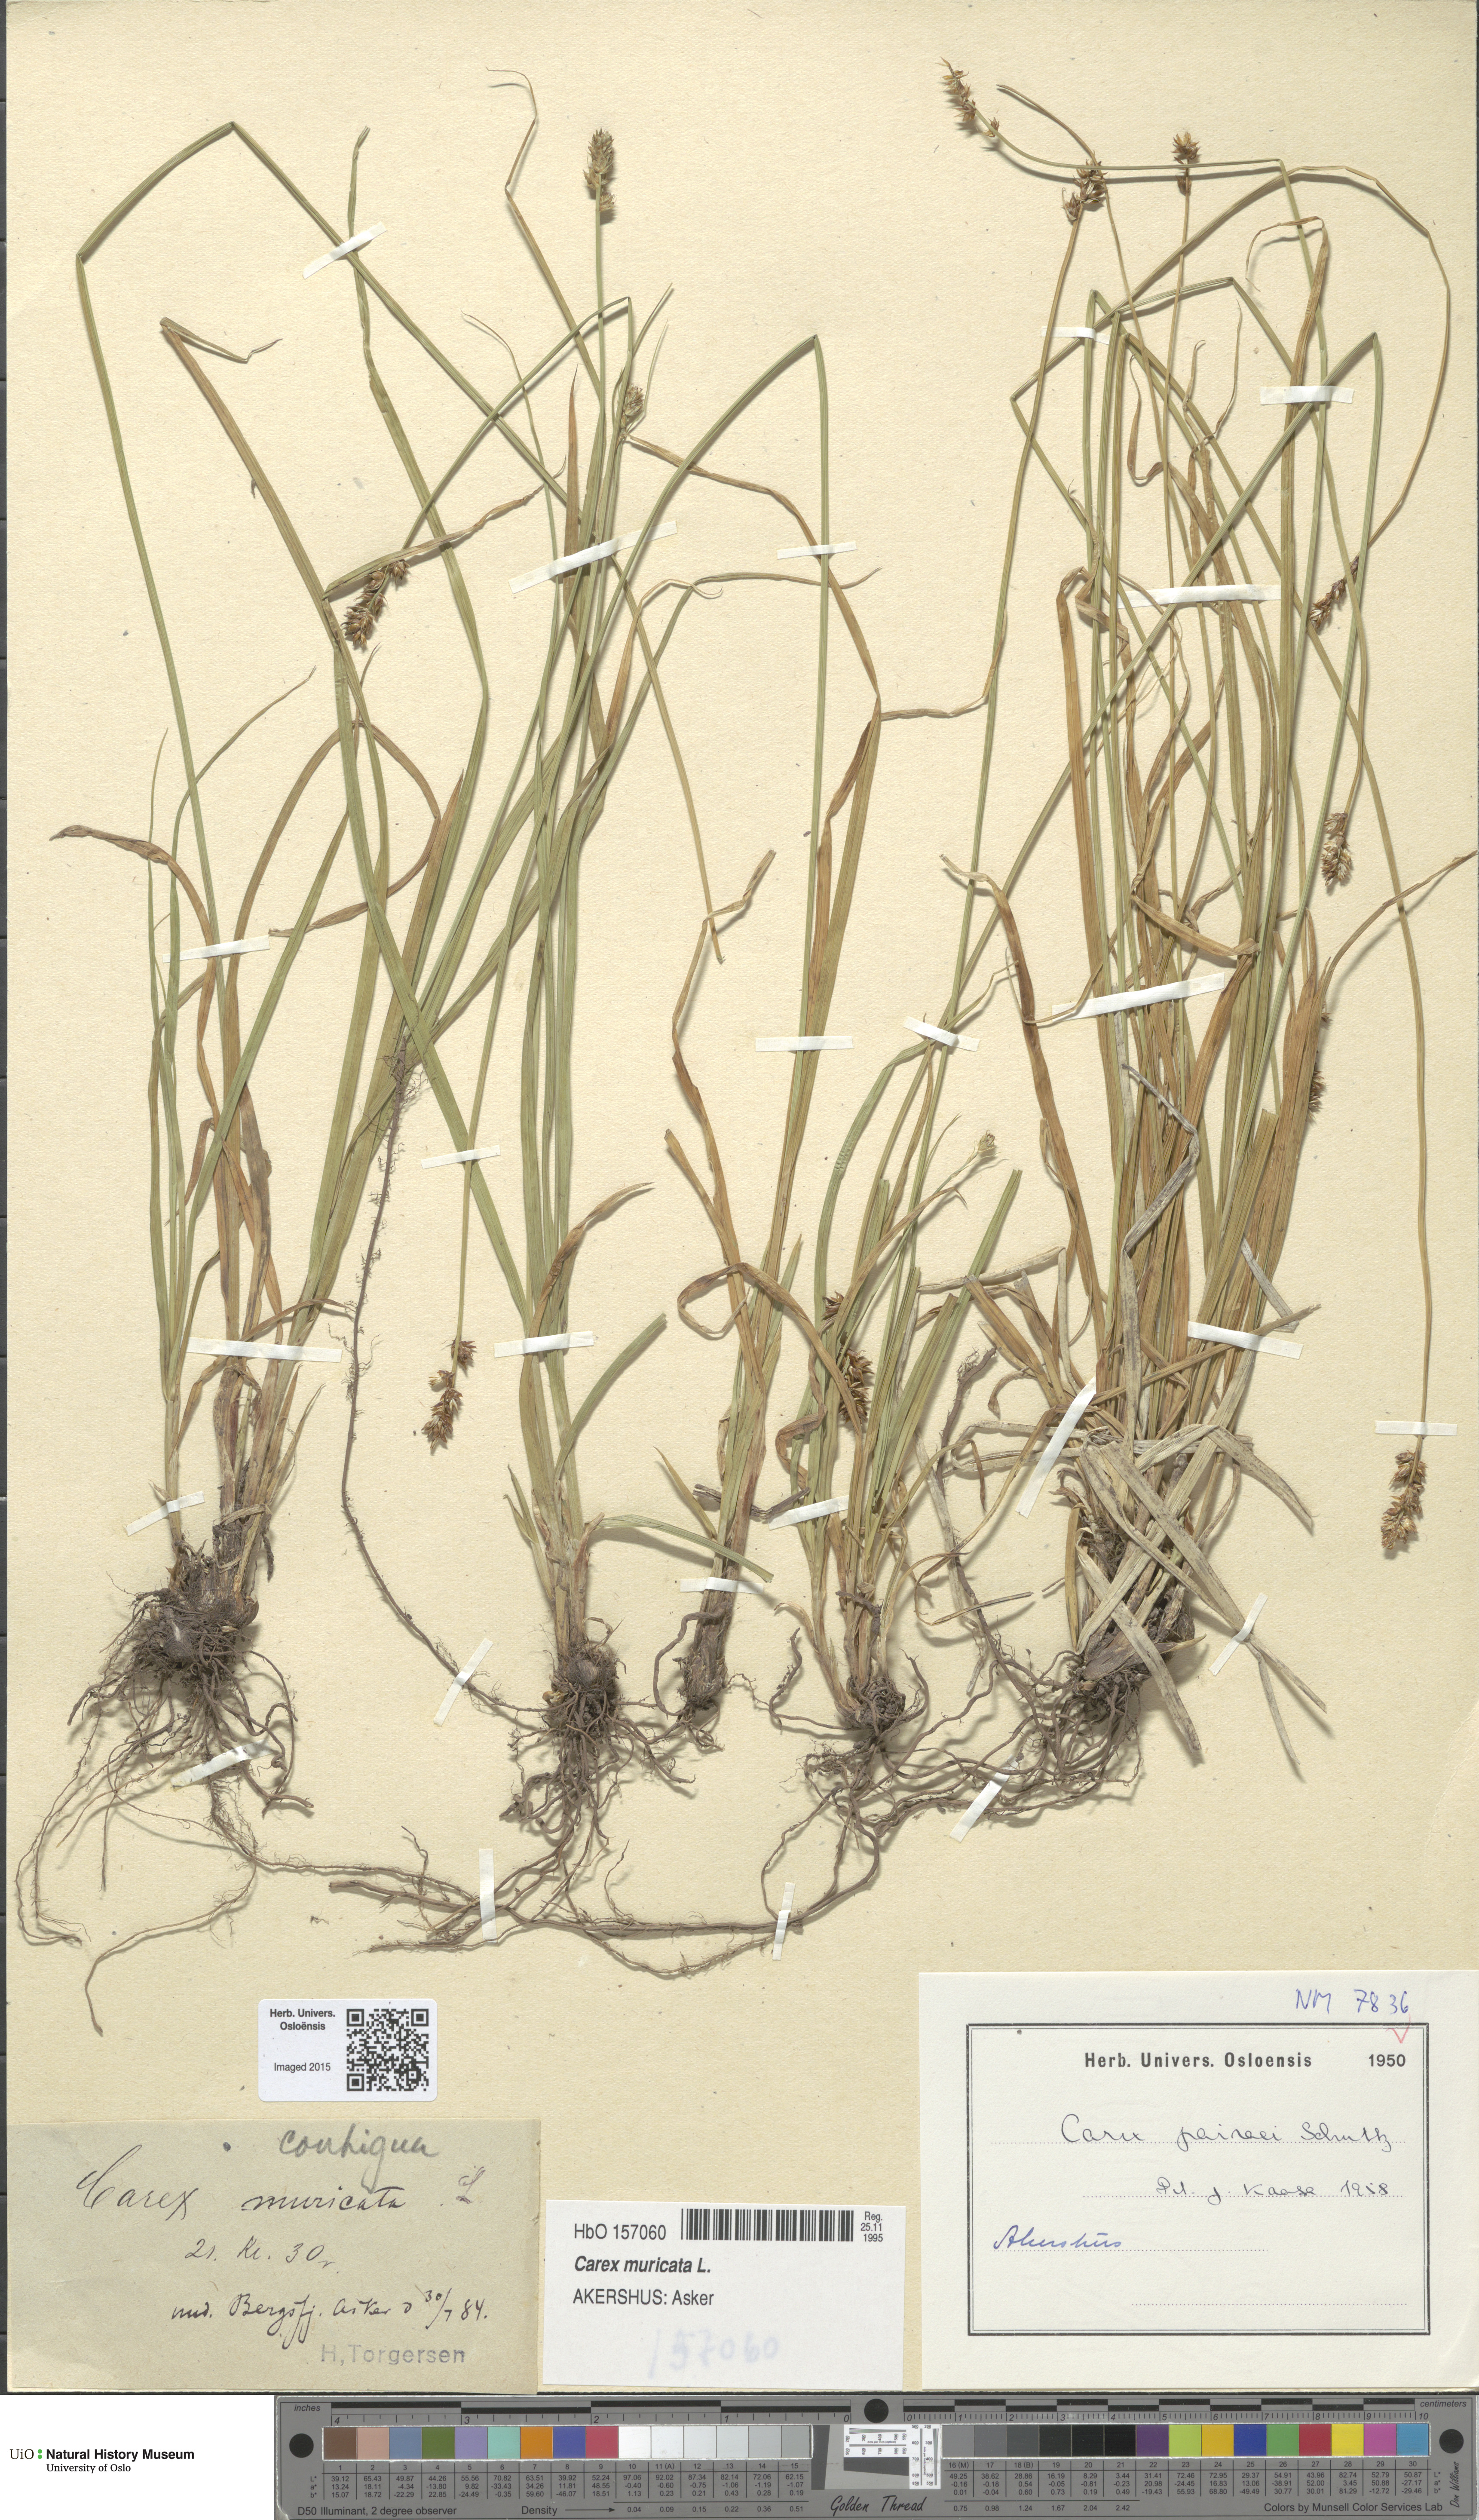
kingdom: Plantae
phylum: Tracheophyta
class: Liliopsida
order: Poales
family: Cyperaceae
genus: Carex
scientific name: Carex pairae
